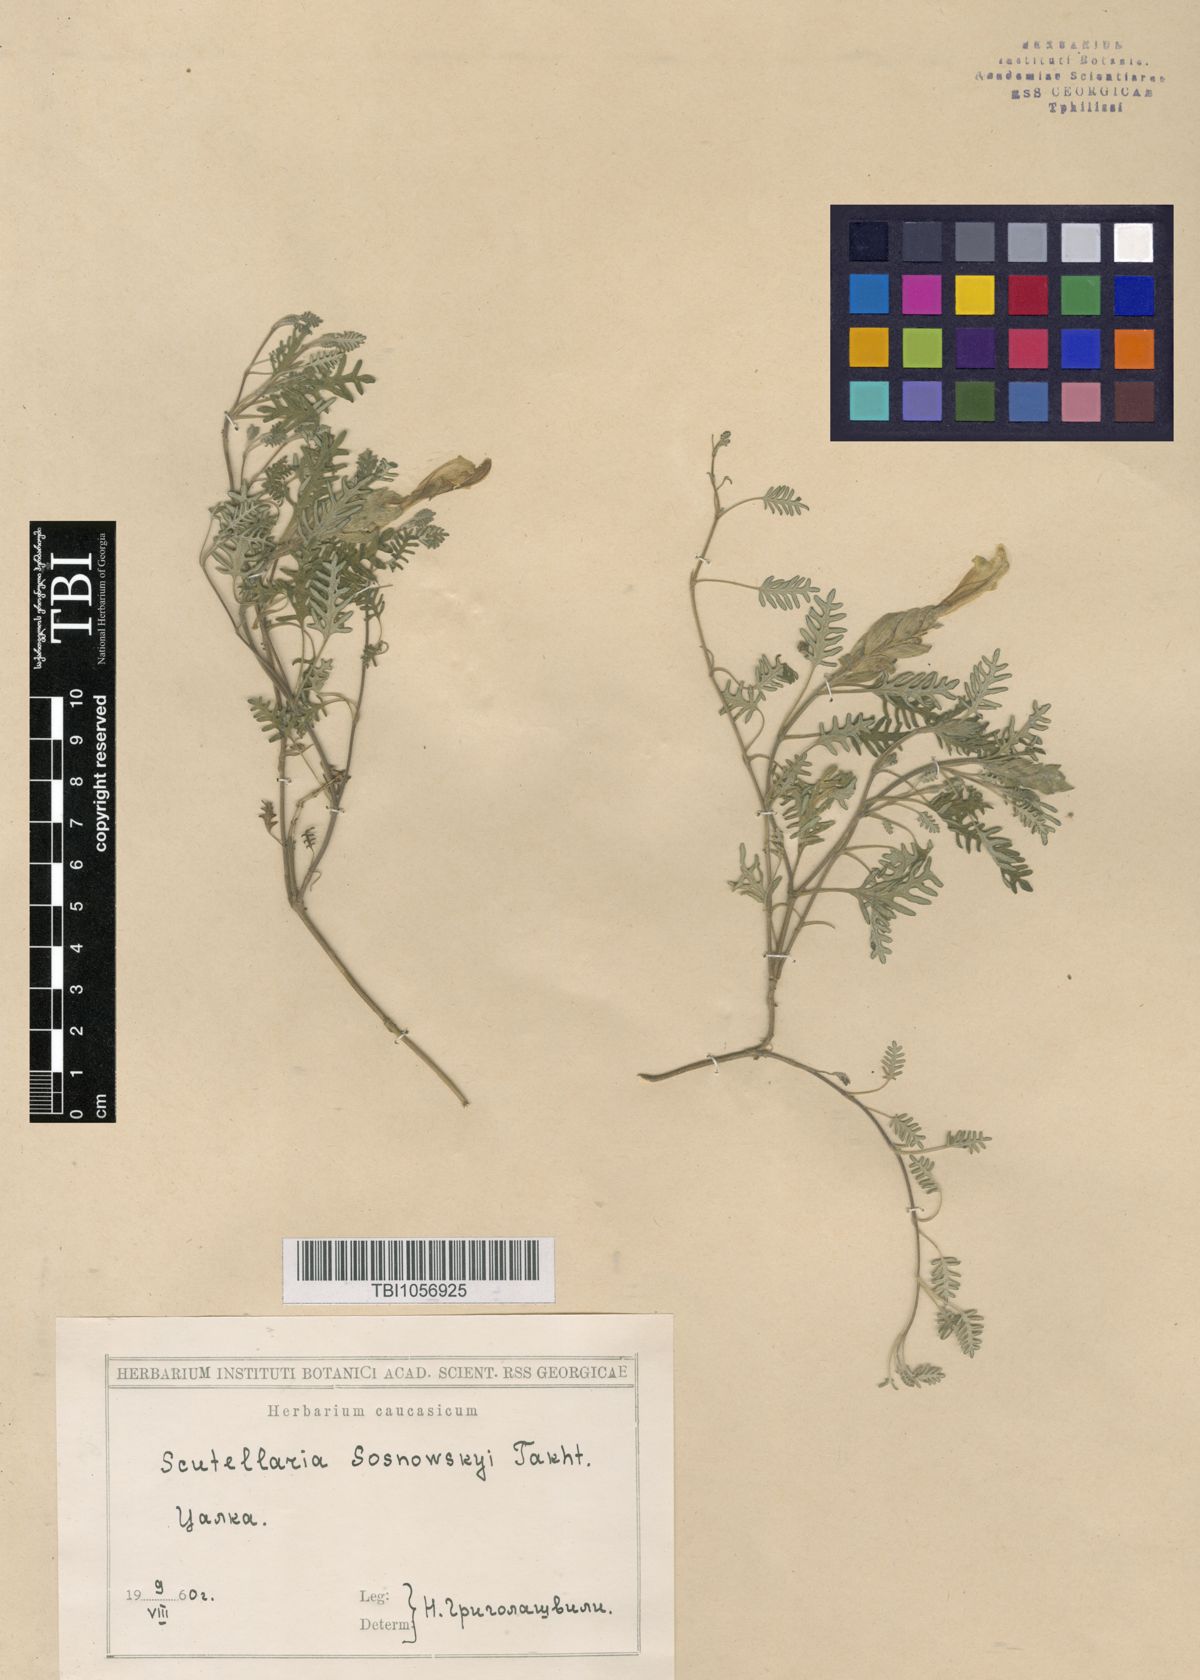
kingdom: Plantae
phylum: Tracheophyta
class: Magnoliopsida
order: Lamiales
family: Lamiaceae
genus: Scutellaria
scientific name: Scutellaria sosnowskyi
